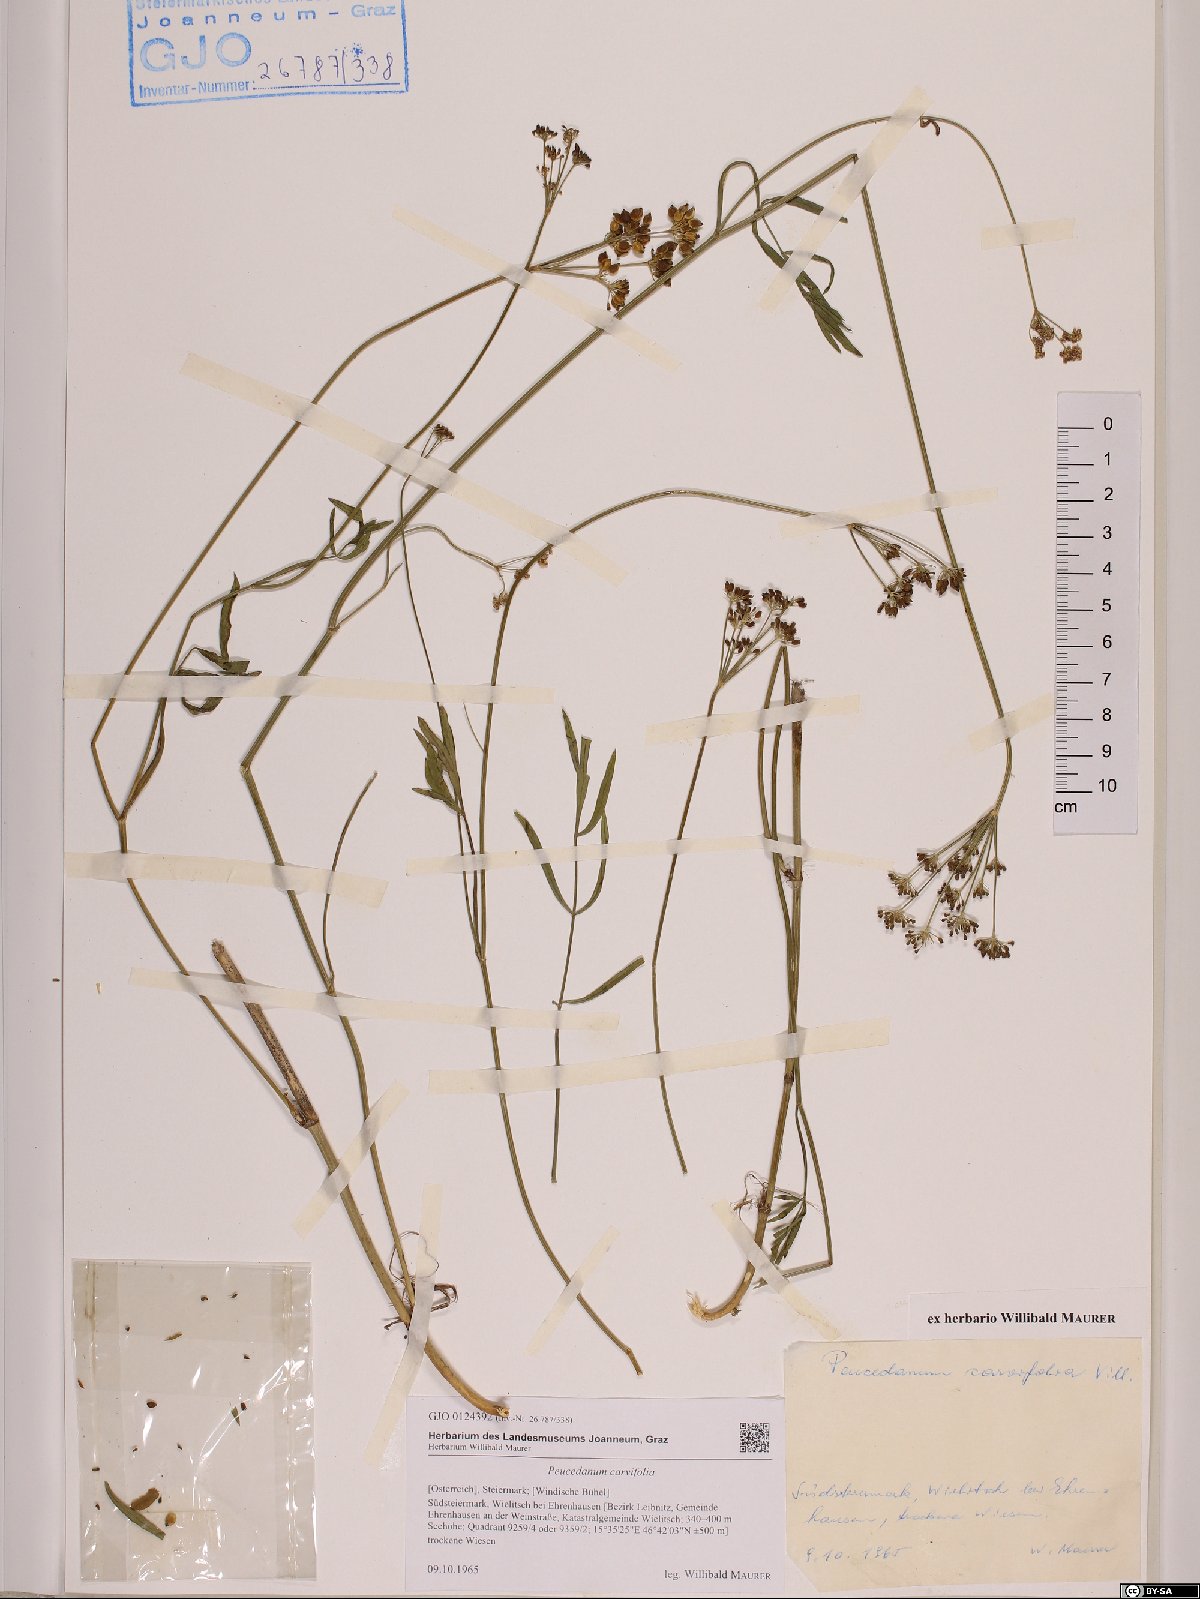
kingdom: Plantae
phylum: Tracheophyta
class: Magnoliopsida
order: Apiales
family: Apiaceae
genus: Dichoropetalum
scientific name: Dichoropetalum carvifolia
